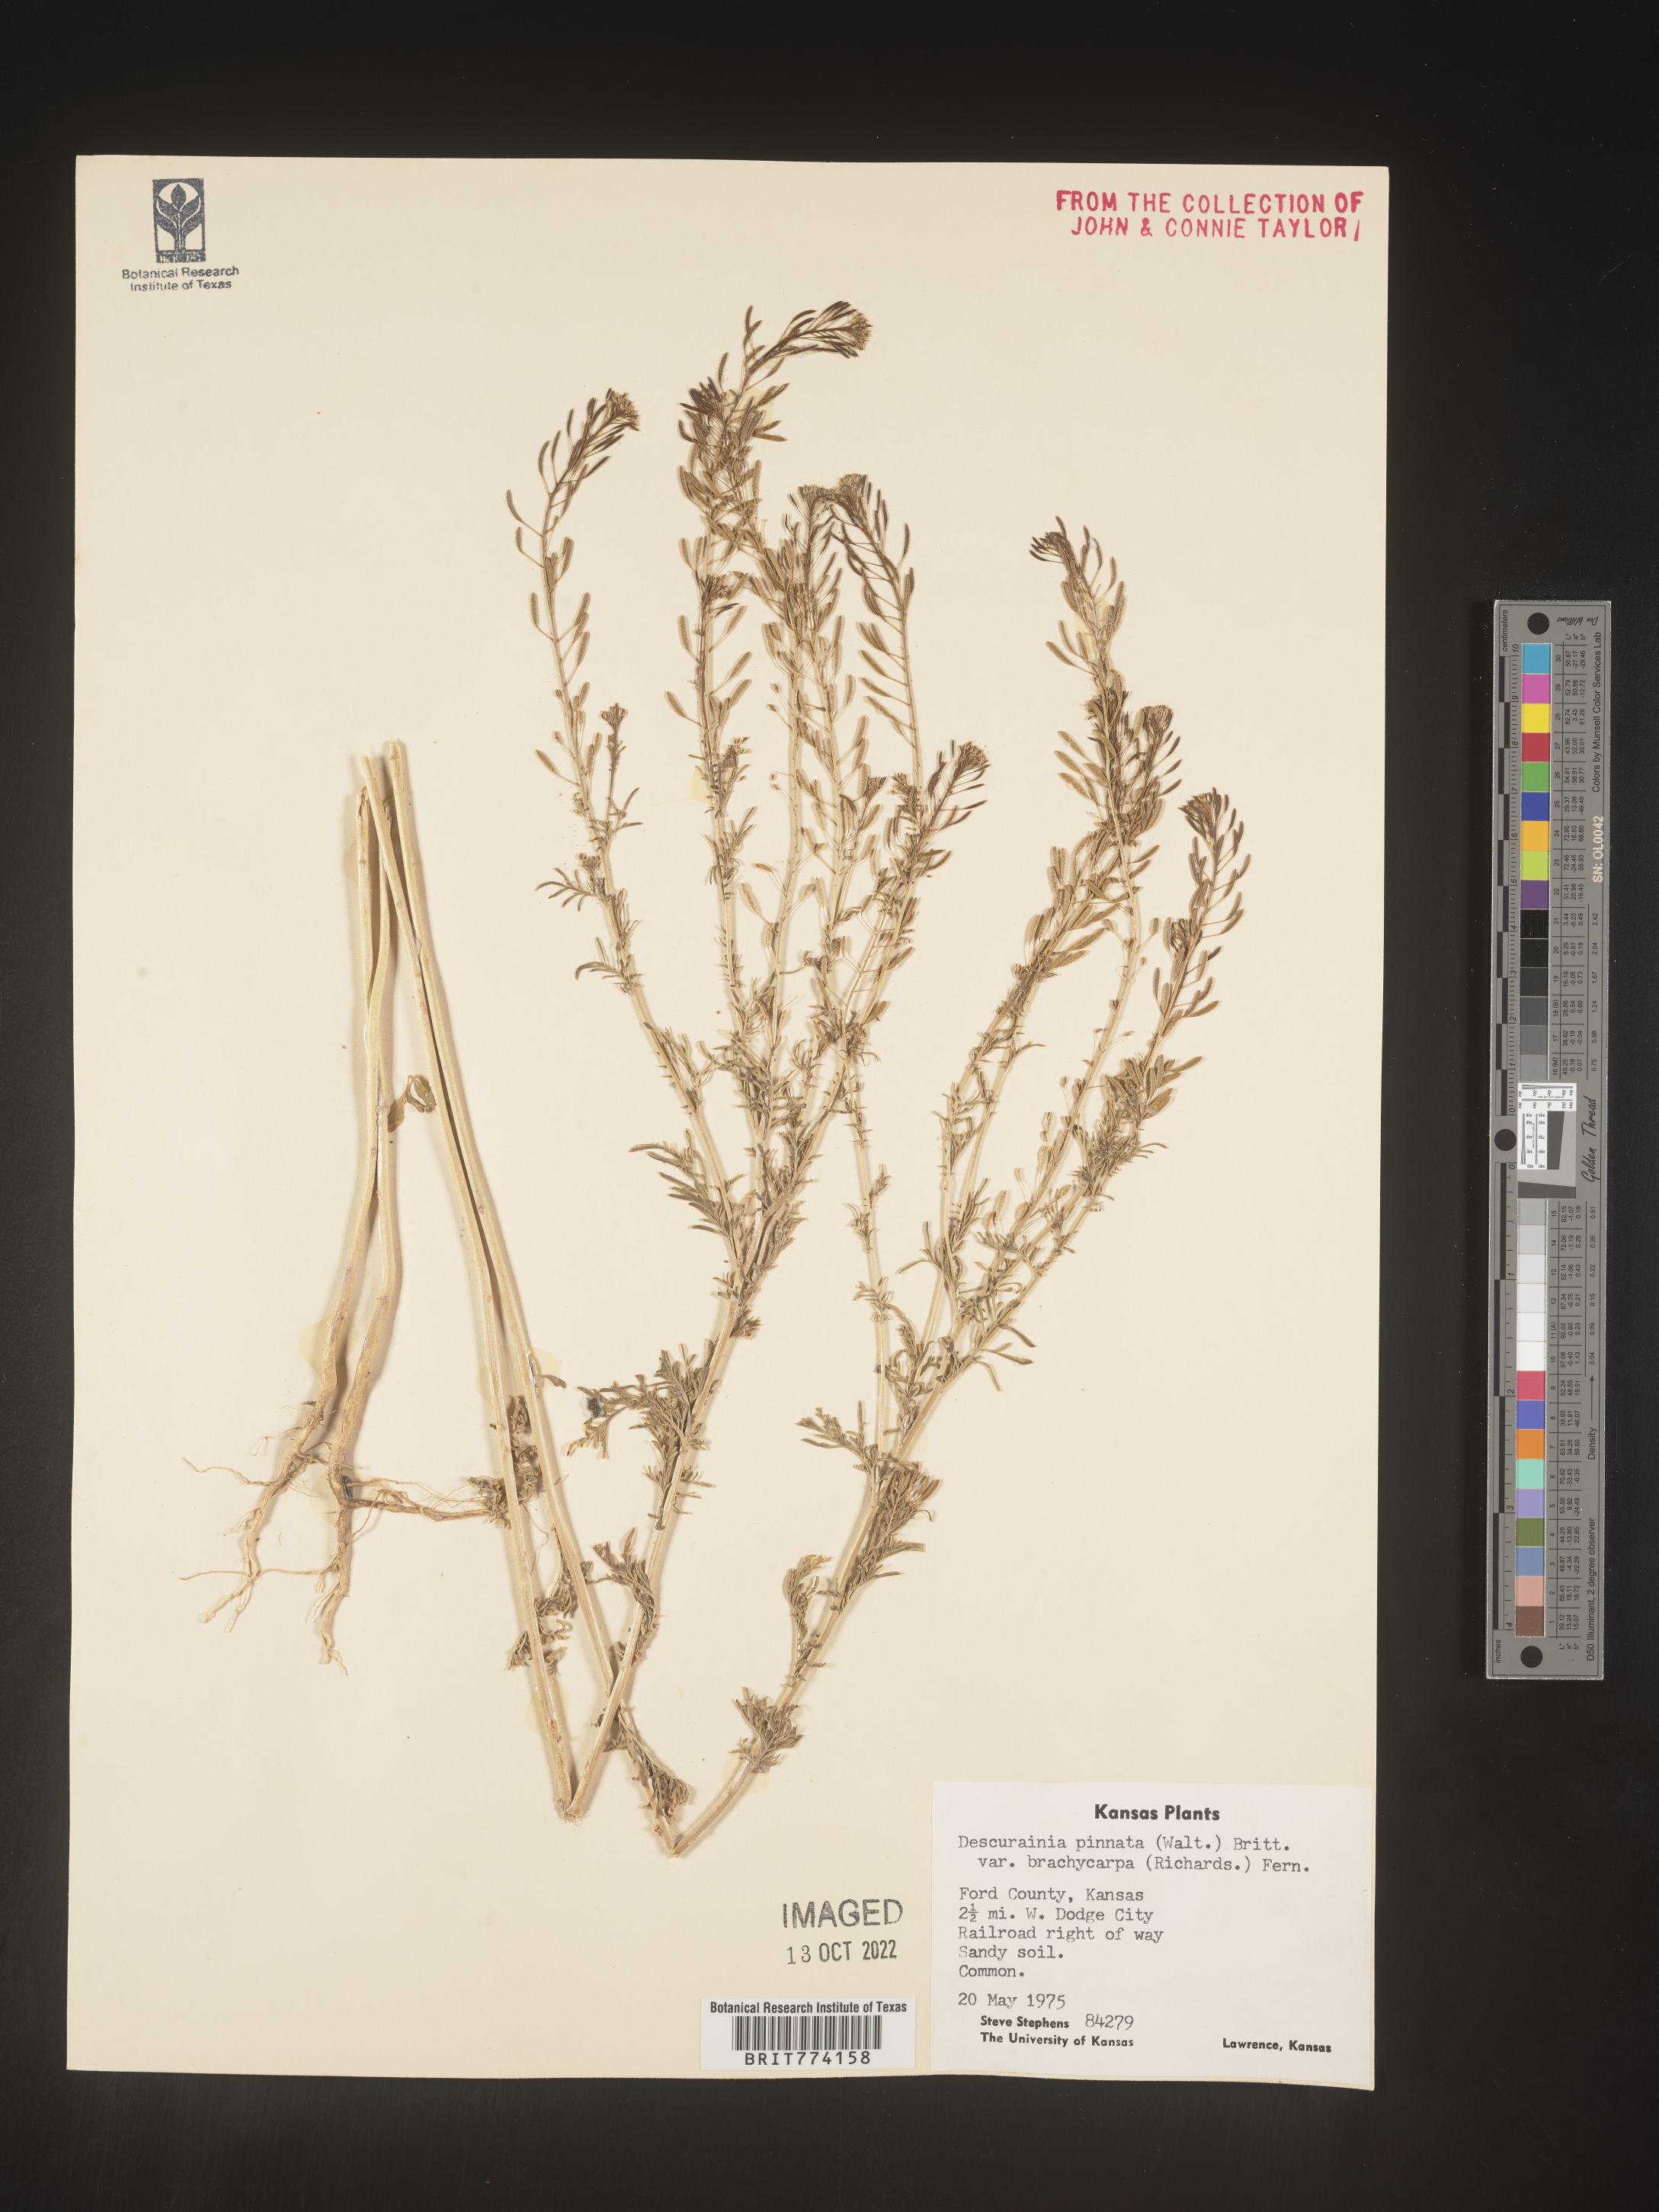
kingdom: Plantae
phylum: Tracheophyta
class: Magnoliopsida
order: Brassicales
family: Brassicaceae
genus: Descurainia
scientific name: Descurainia pinnata
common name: Western tansy mustard
